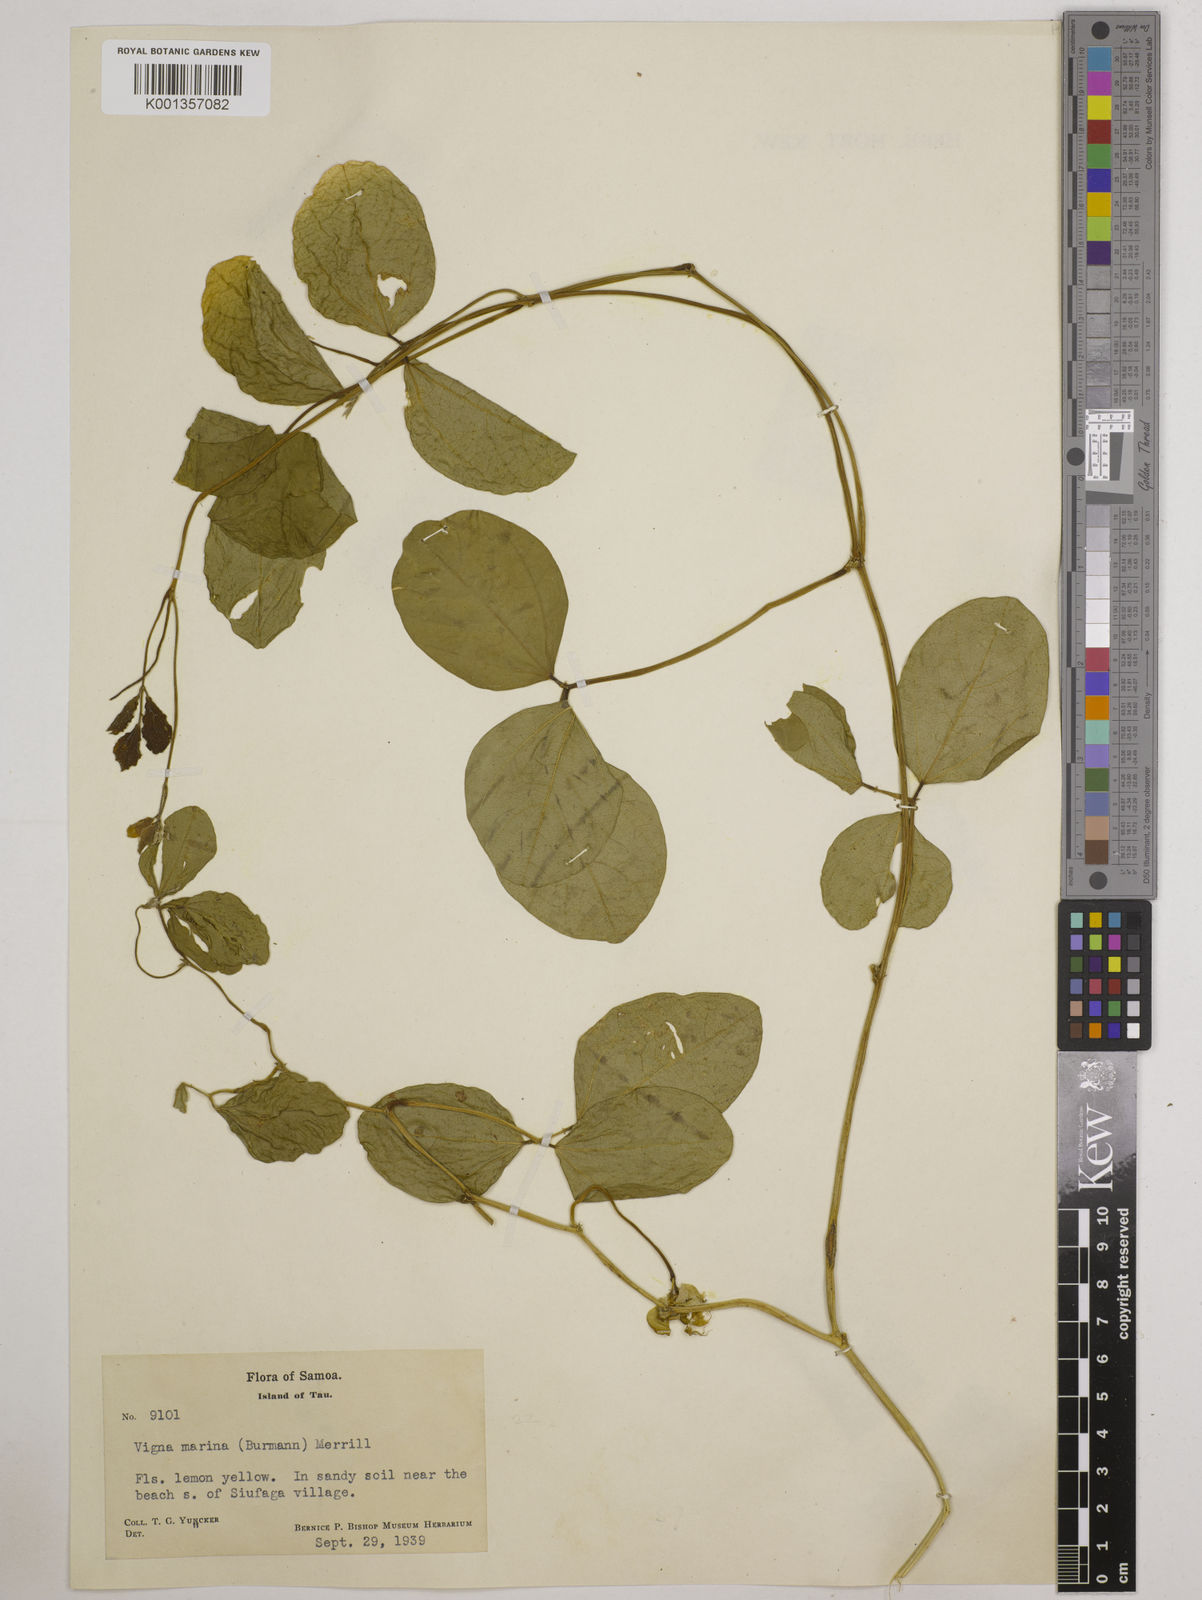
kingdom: Plantae
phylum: Tracheophyta
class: Magnoliopsida
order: Fabales
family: Fabaceae
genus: Vigna
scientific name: Vigna marina
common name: Dune-bean
